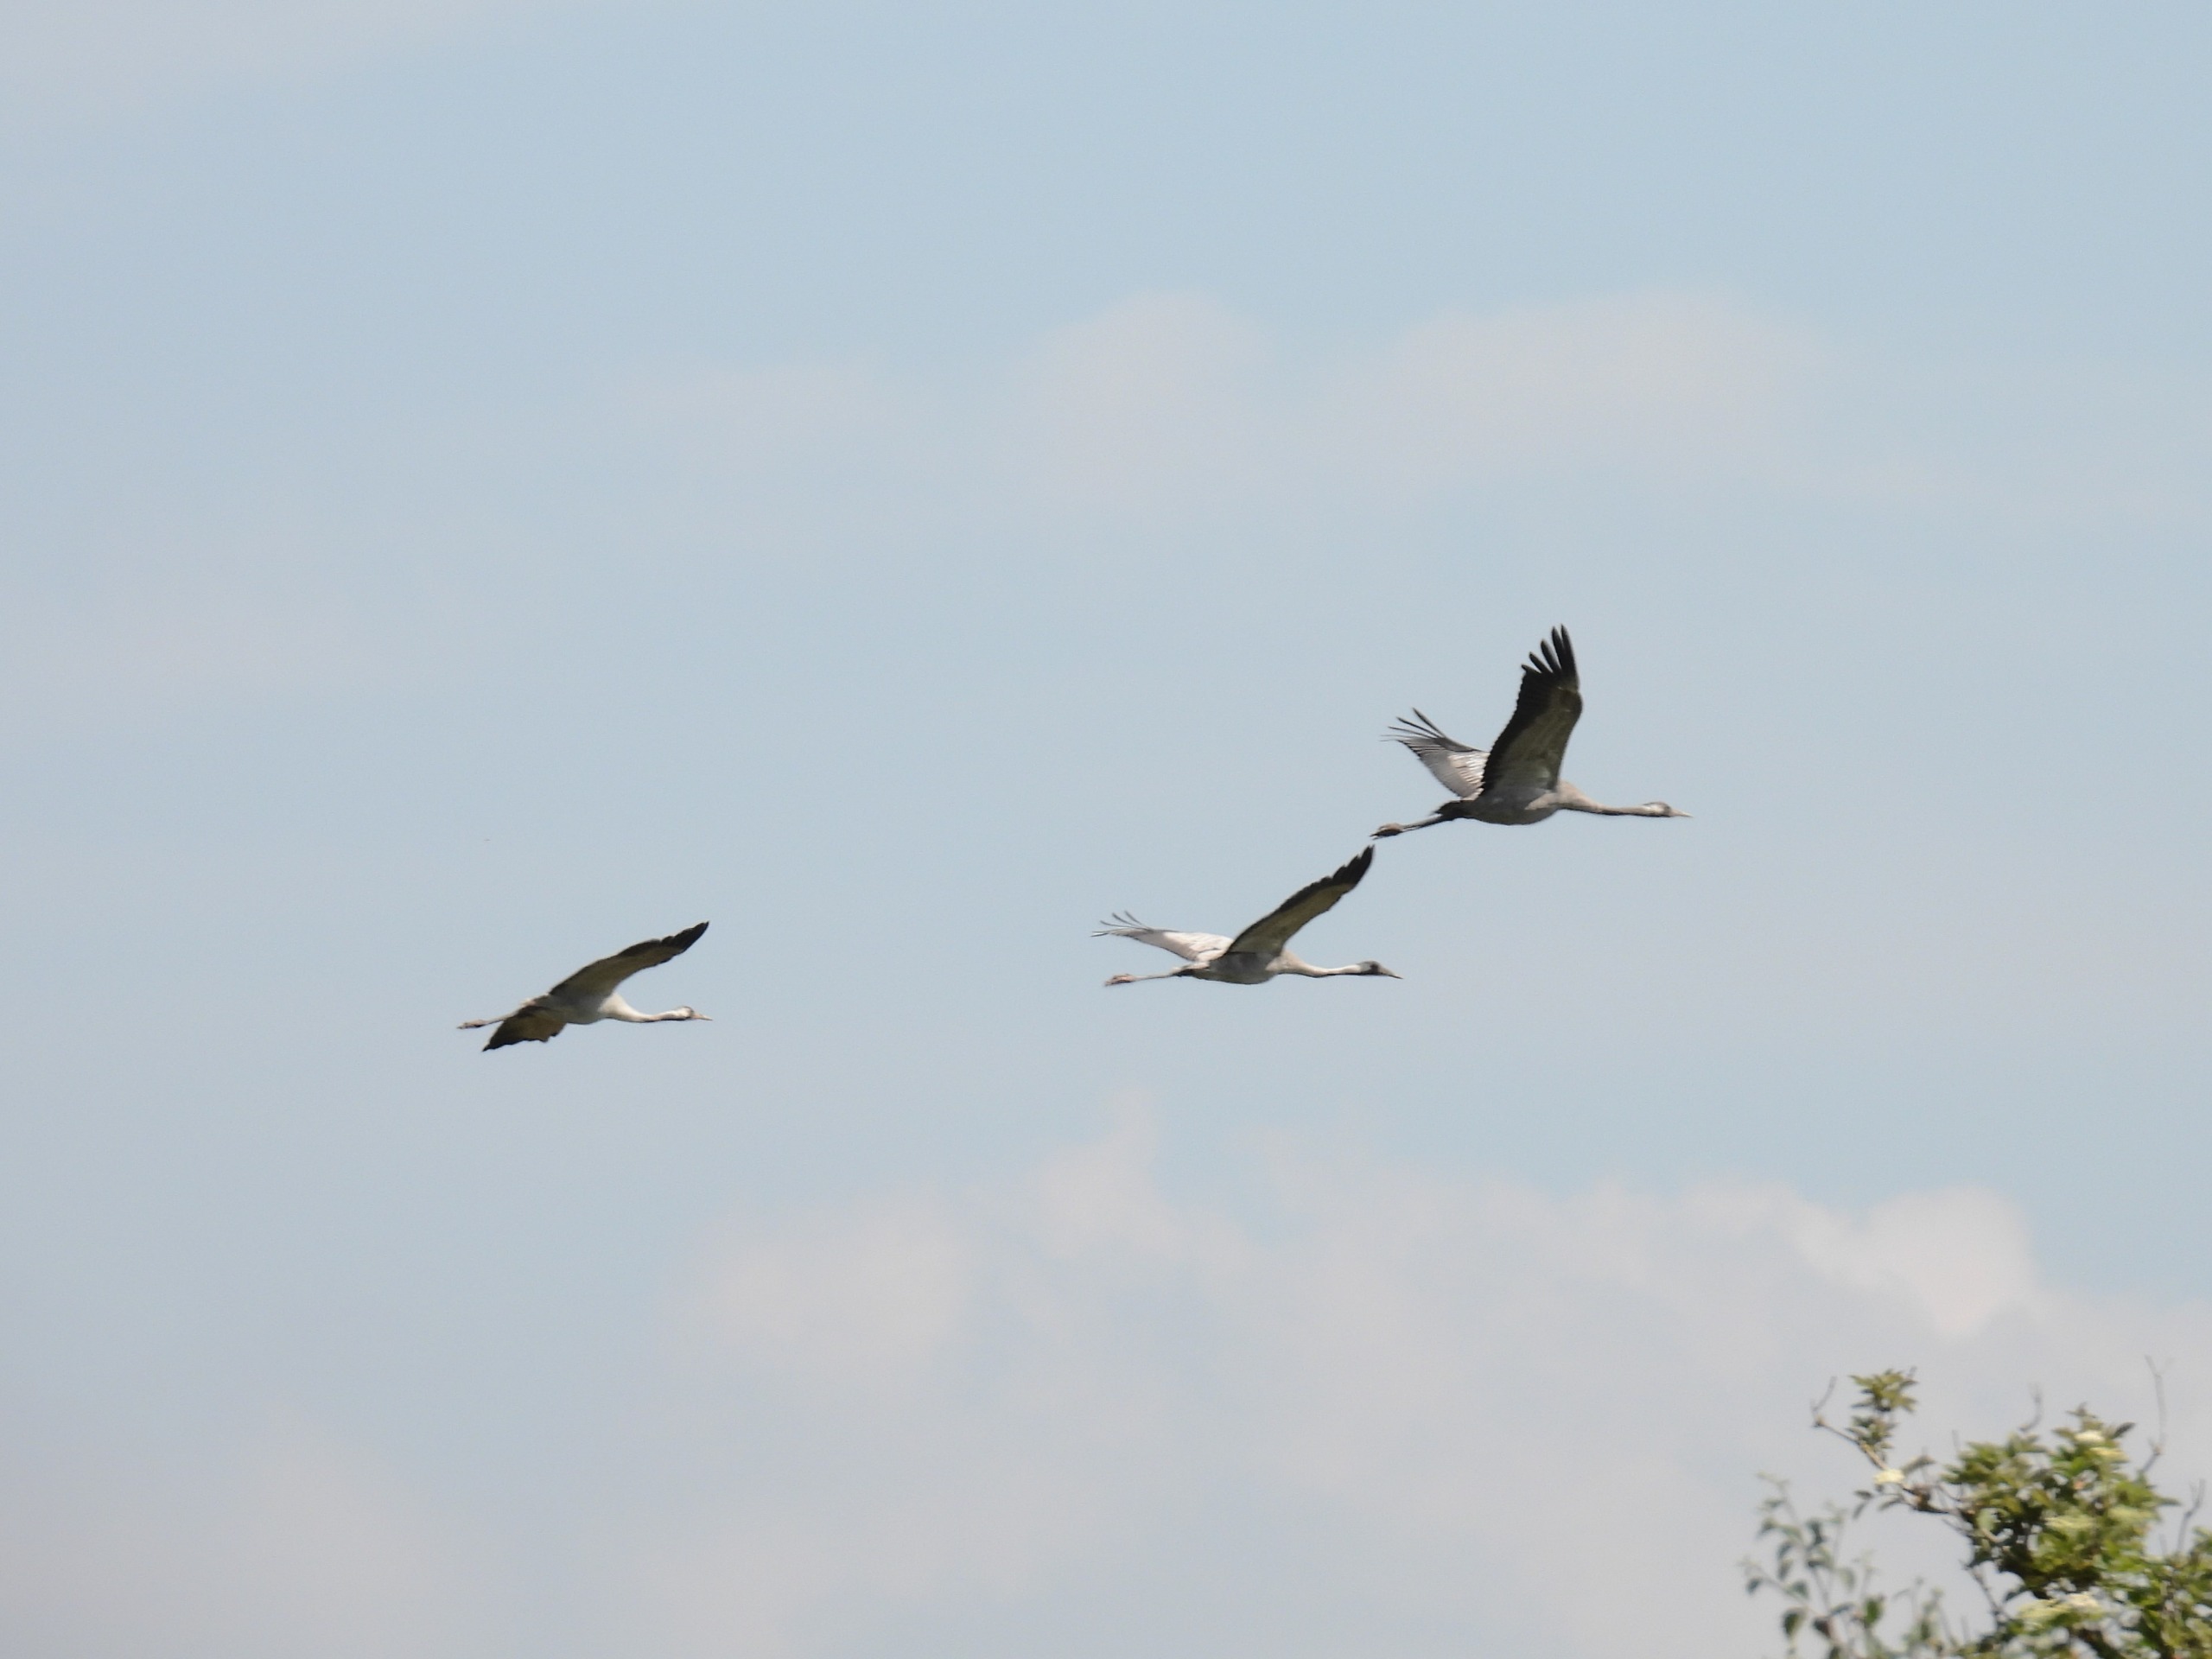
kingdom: Animalia
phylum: Chordata
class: Aves
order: Gruiformes
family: Gruidae
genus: Grus
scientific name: Grus grus
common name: Trane
